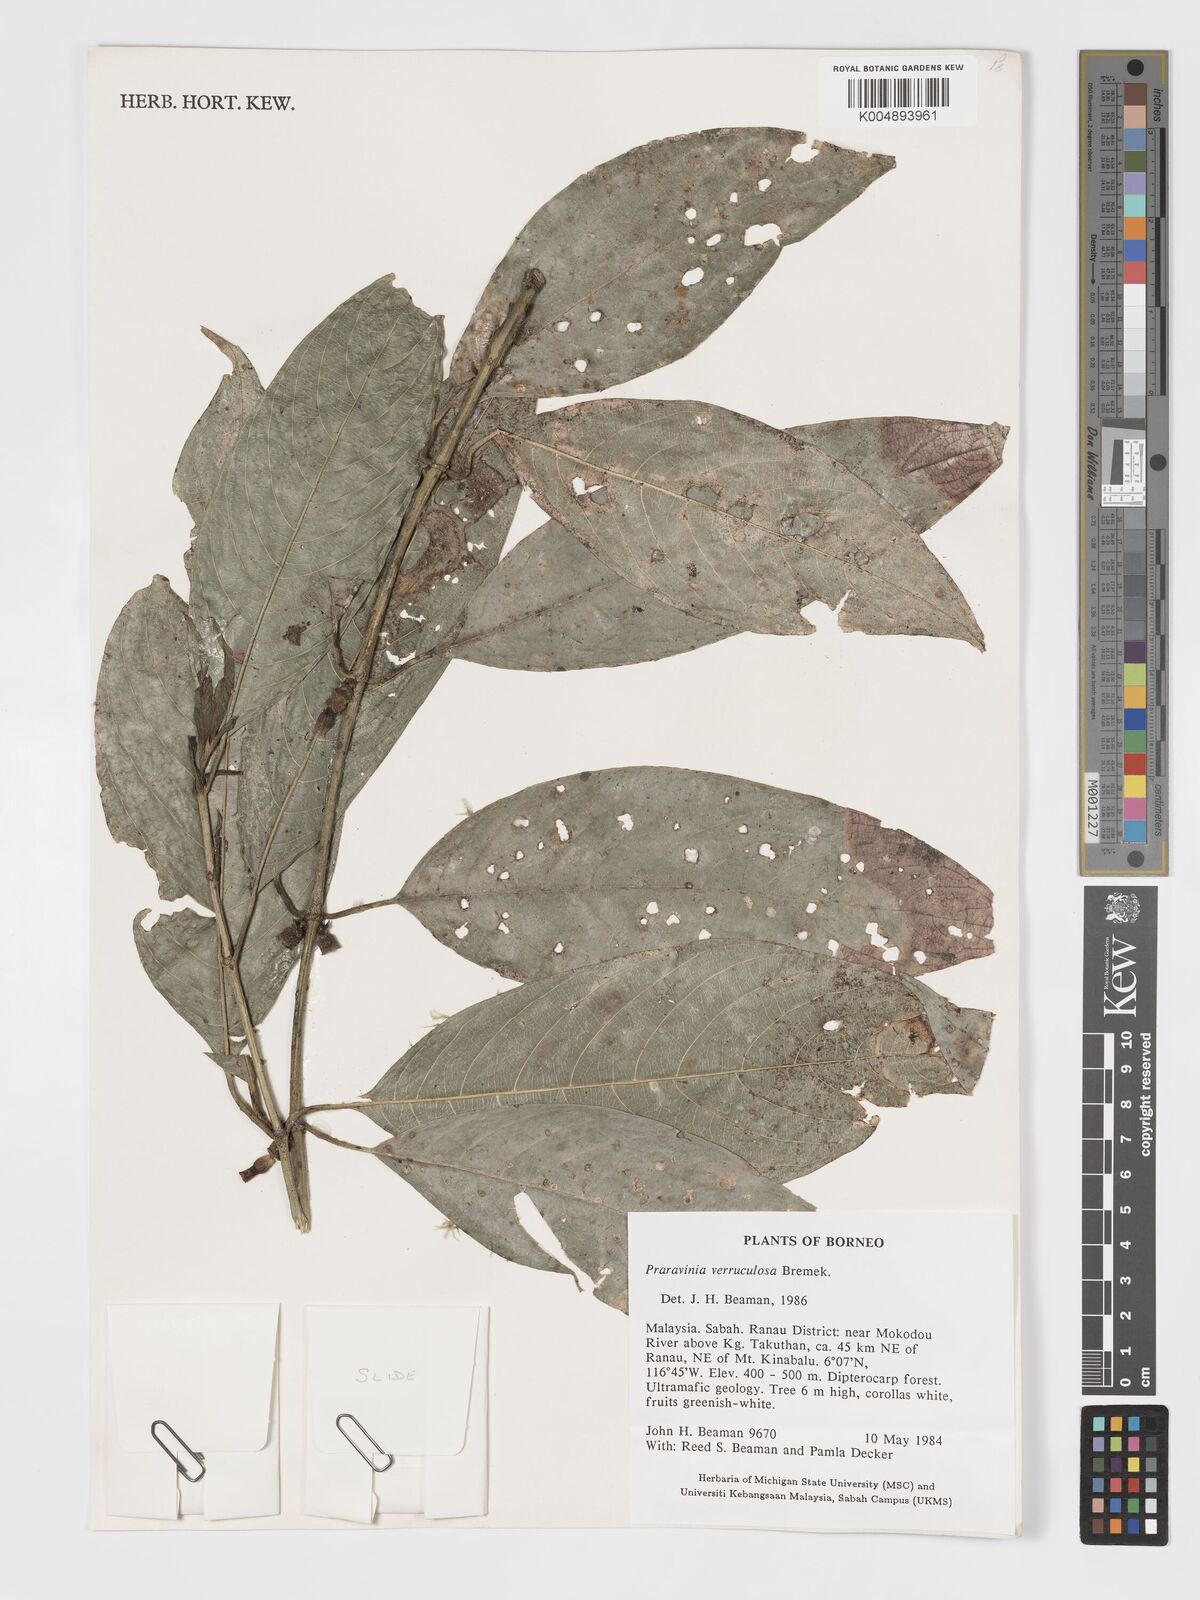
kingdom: Plantae
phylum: Tracheophyta
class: Magnoliopsida
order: Gentianales
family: Rubiaceae
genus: Praravinia
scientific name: Praravinia verruculosa
